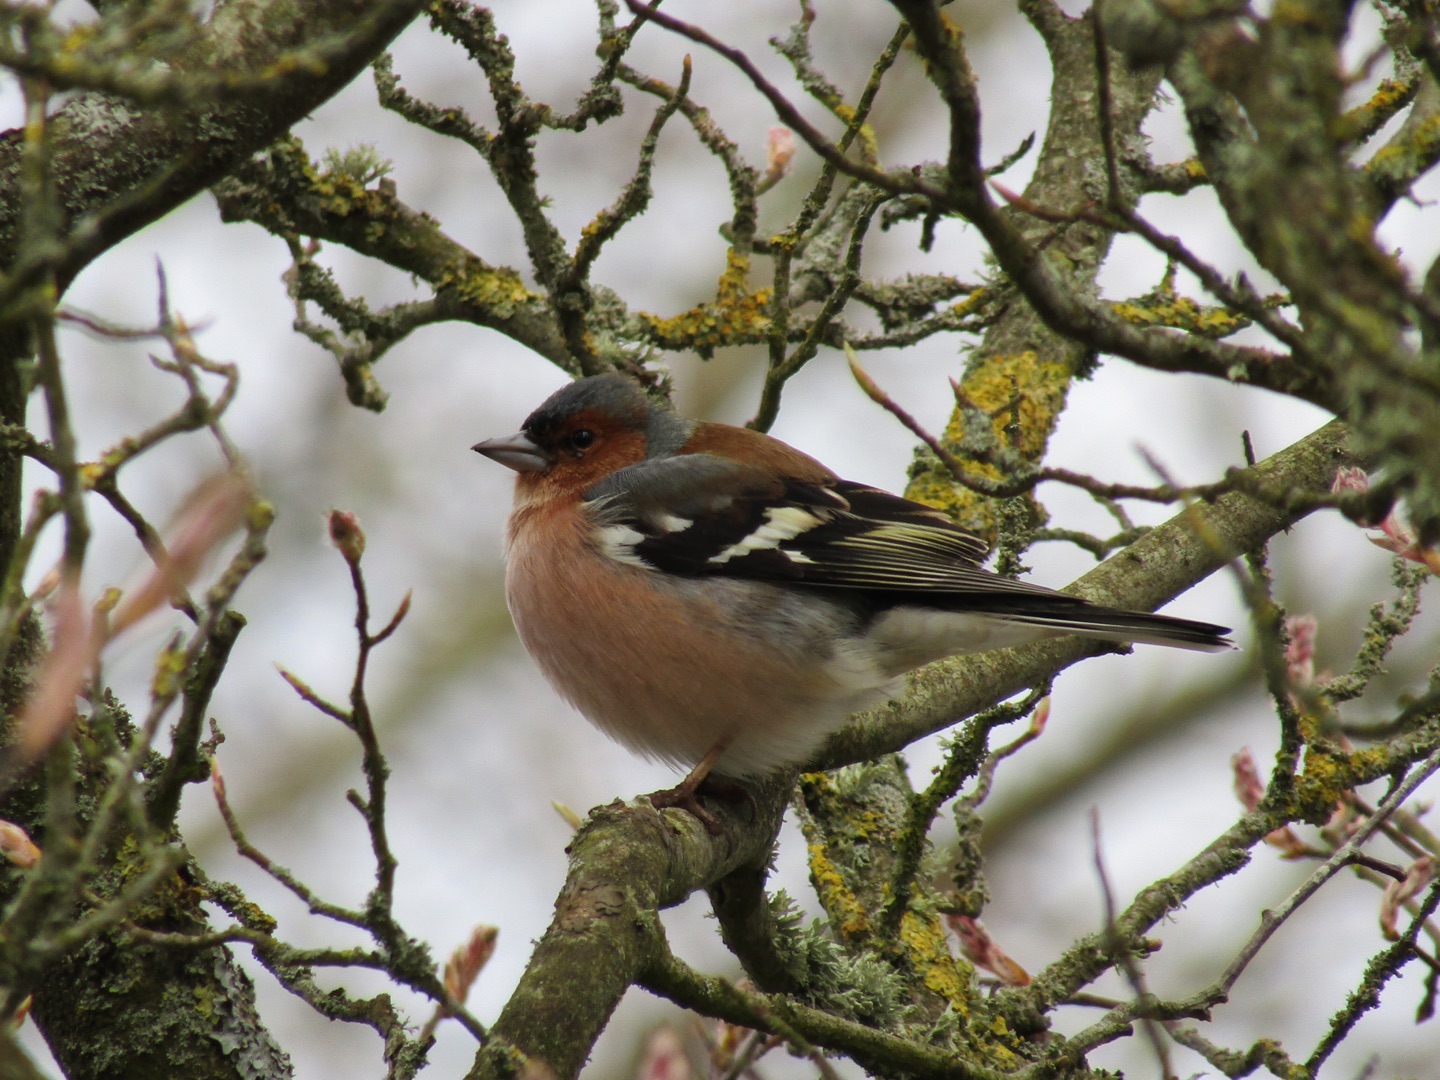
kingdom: Animalia
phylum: Chordata
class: Aves
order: Passeriformes
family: Fringillidae
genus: Fringilla
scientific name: Fringilla coelebs
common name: Bogfinke
